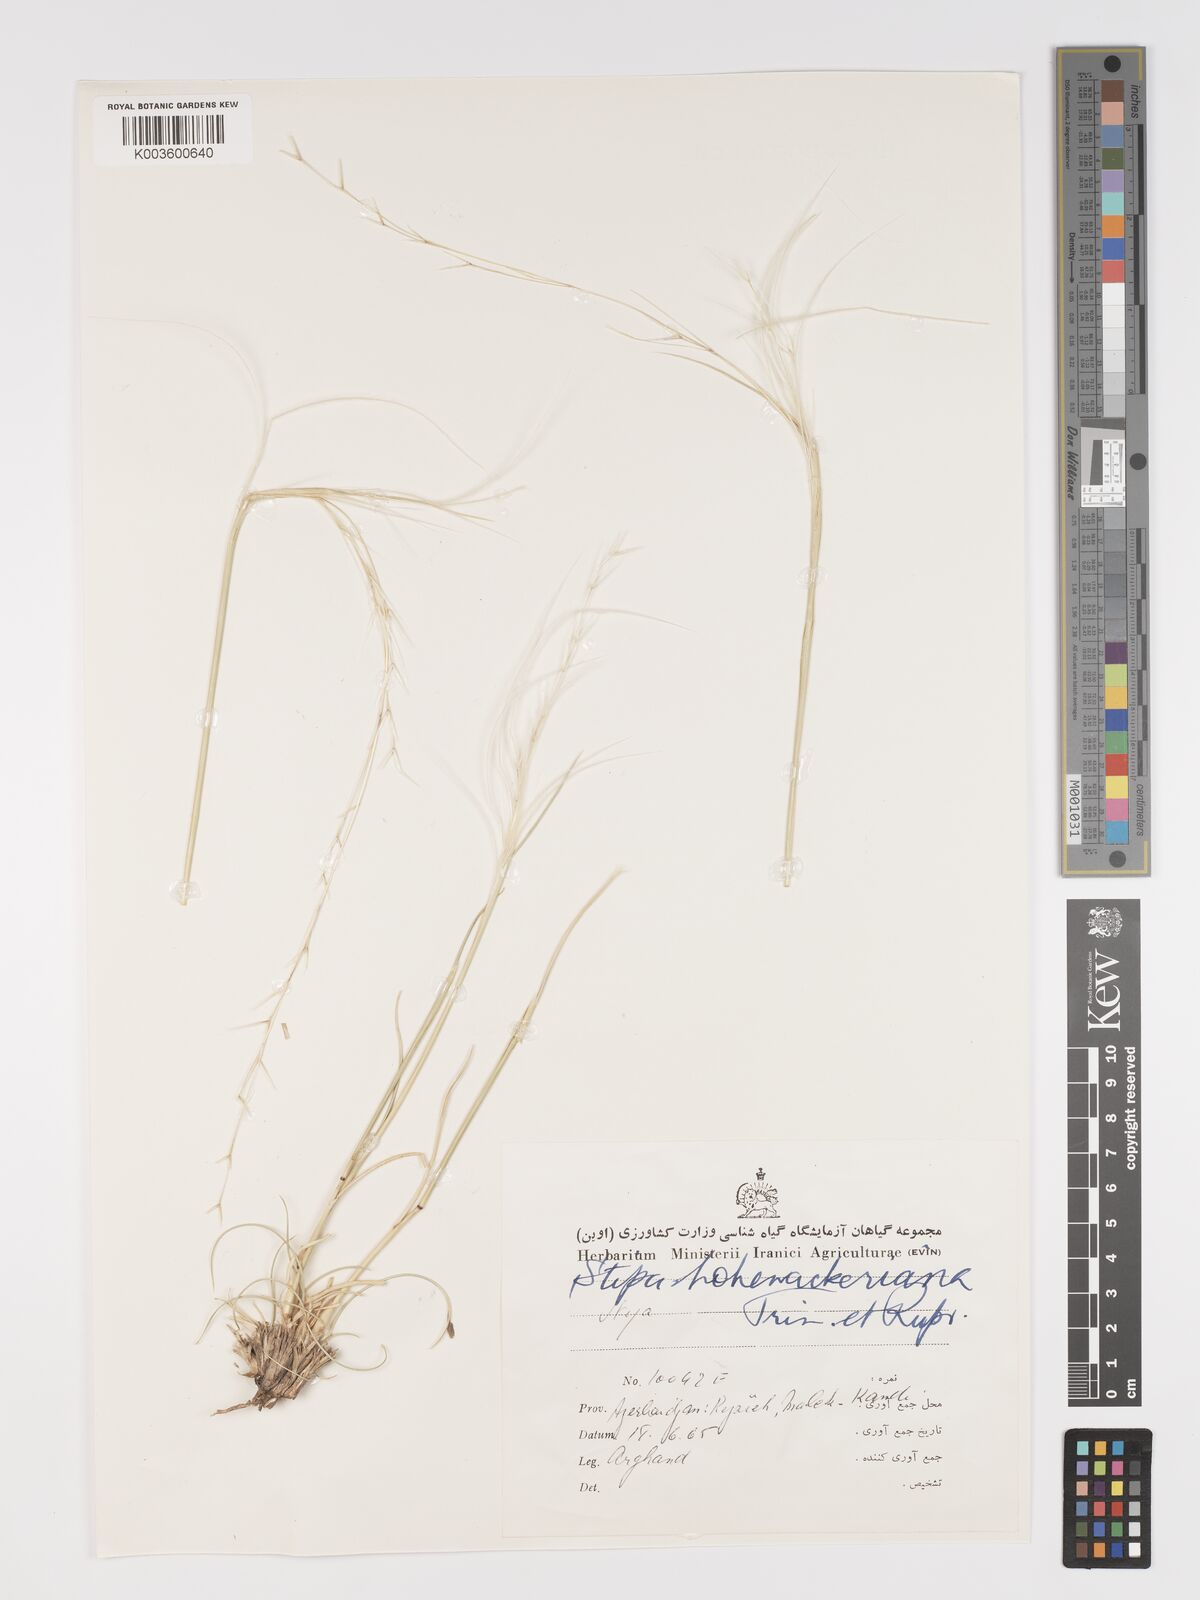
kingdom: Plantae
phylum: Tracheophyta
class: Liliopsida
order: Poales
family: Poaceae
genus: Stipa
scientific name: Stipa hohenackeriana
